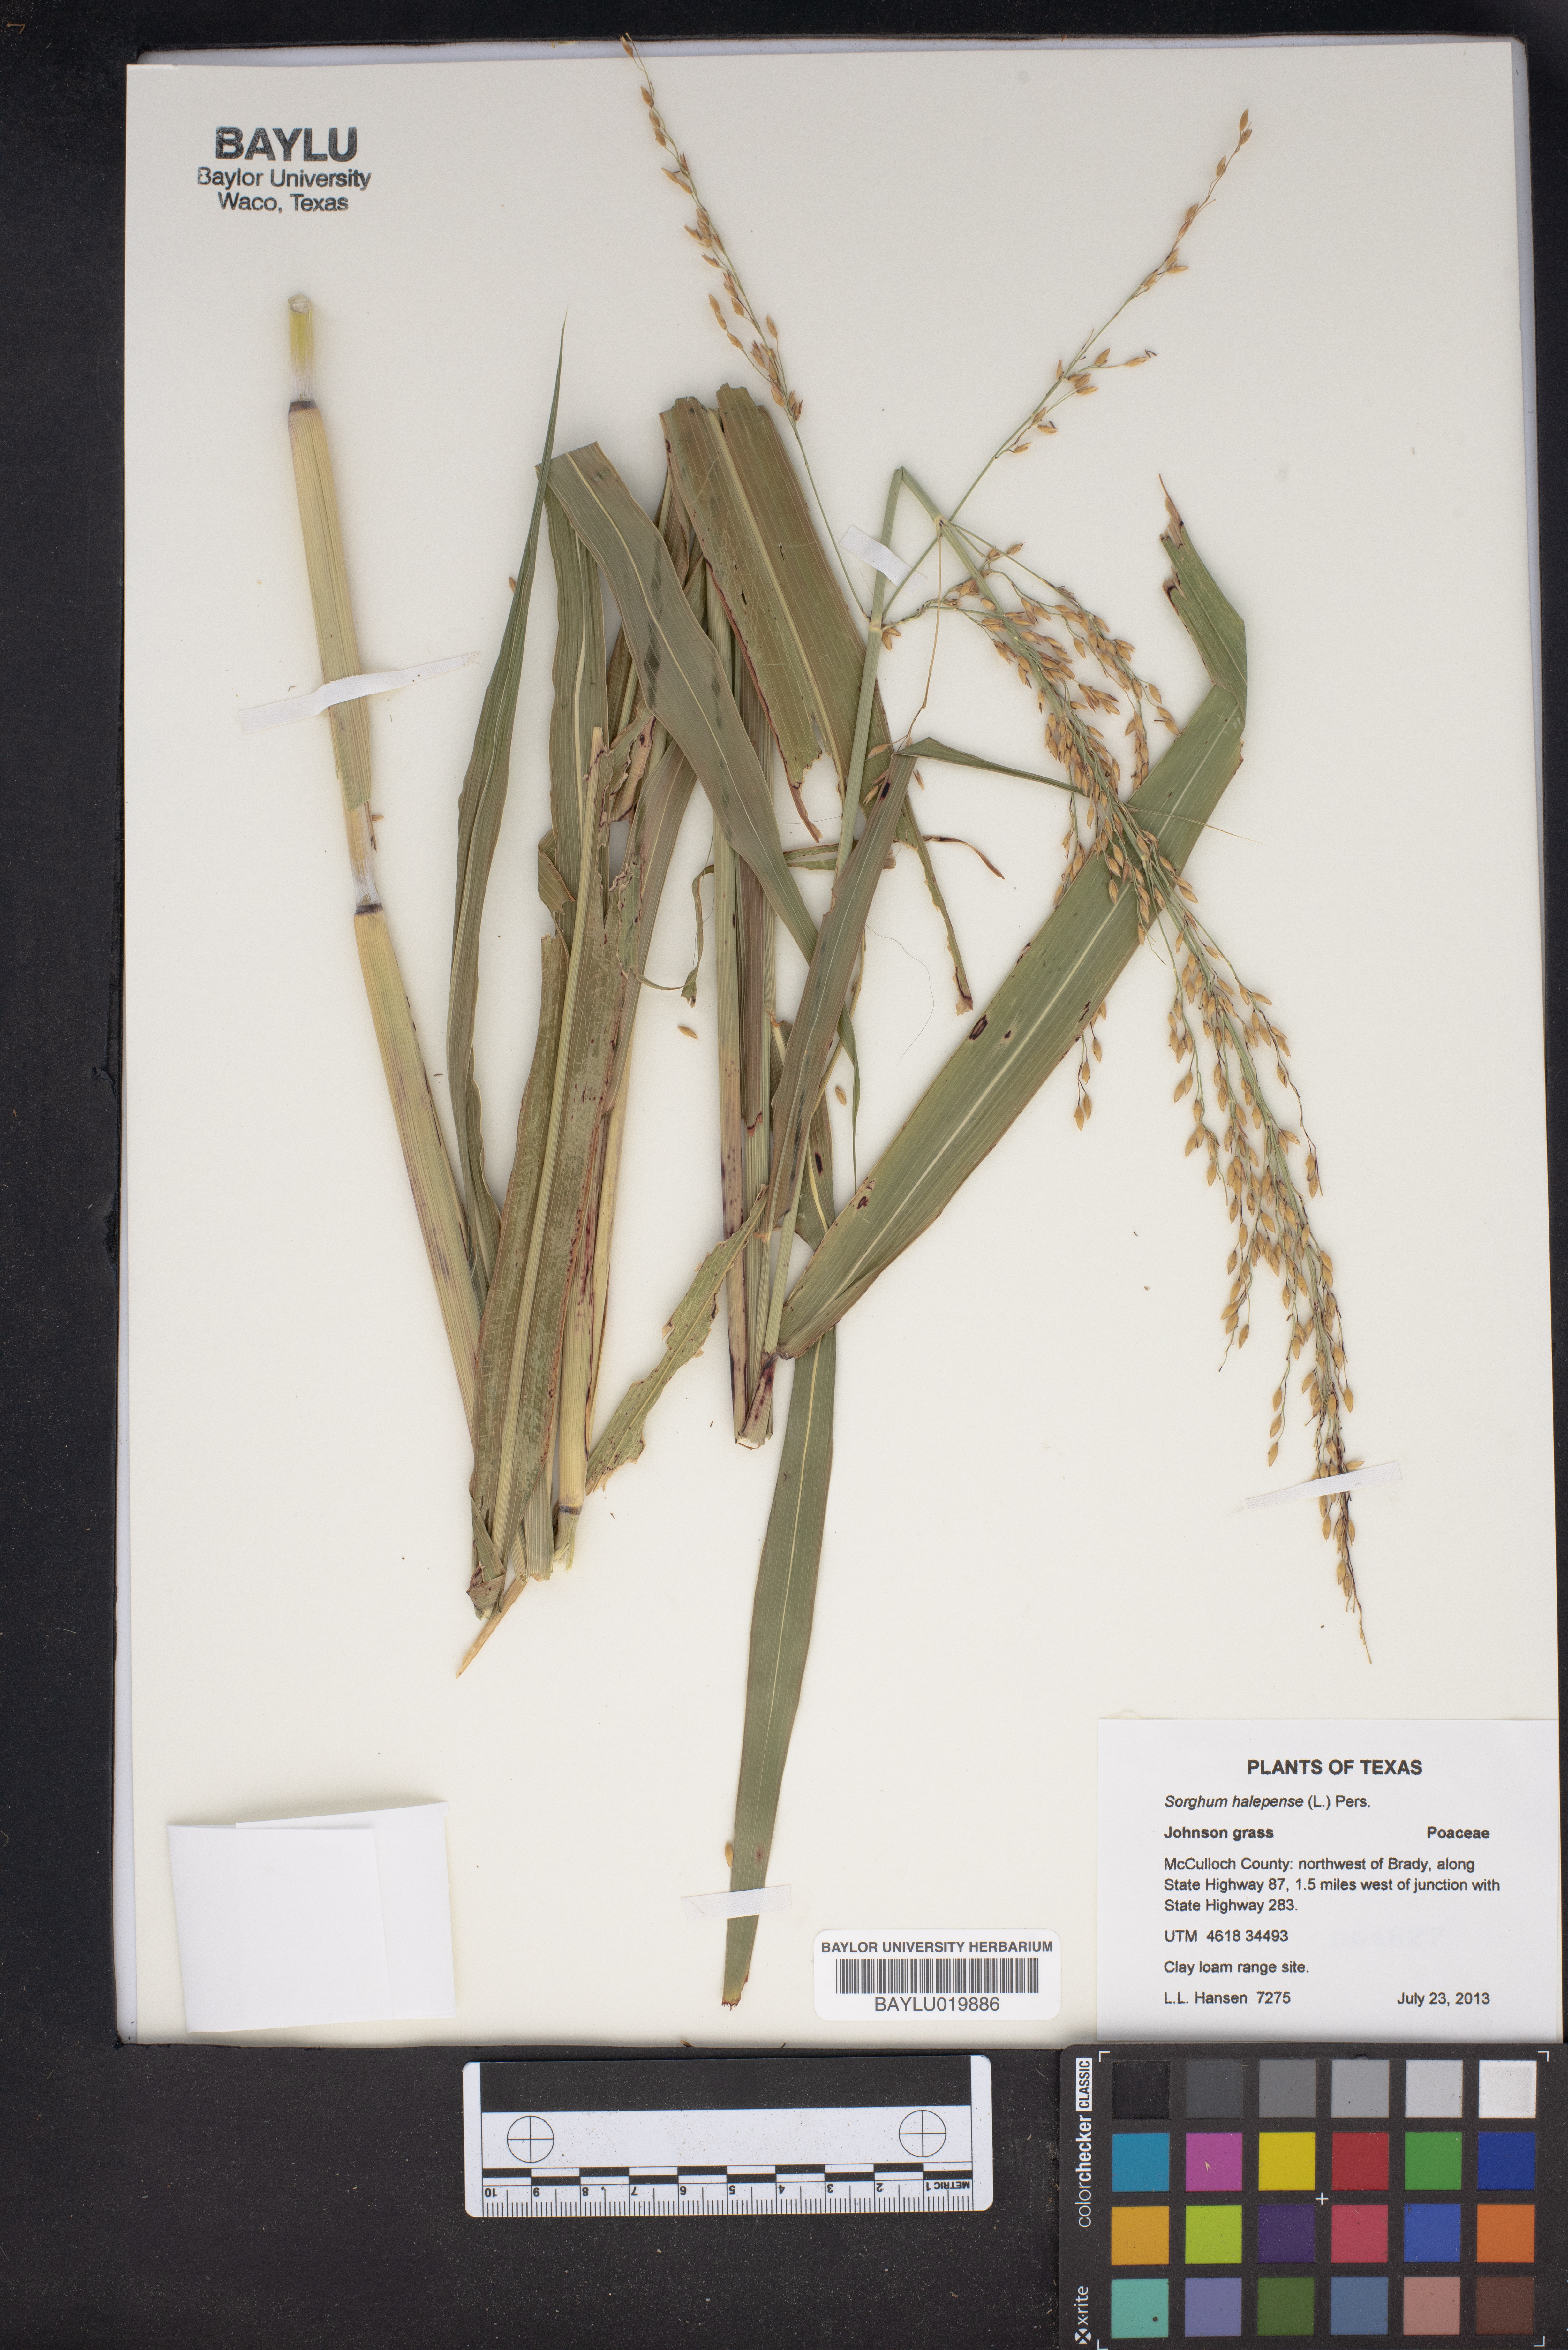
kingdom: Plantae
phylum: Tracheophyta
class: Liliopsida
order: Poales
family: Poaceae
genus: Sorghum
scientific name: Sorghum halepense
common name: Johnson-grass
